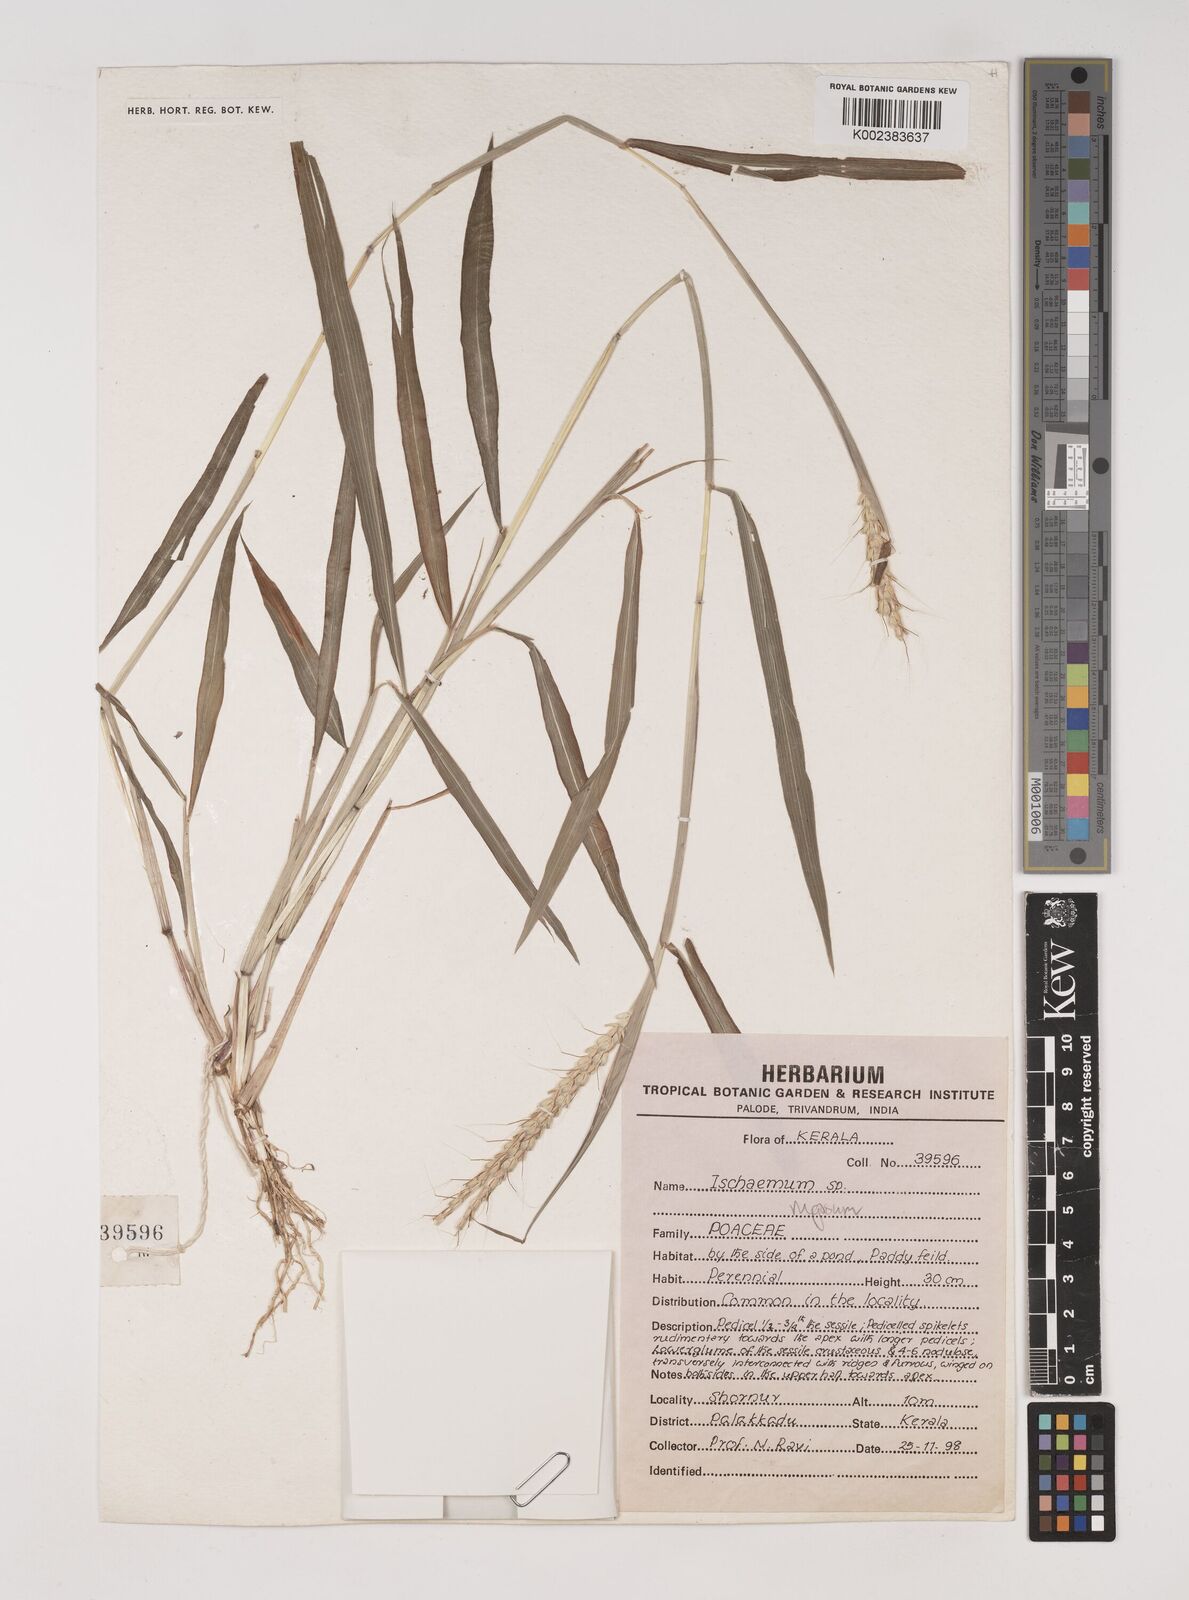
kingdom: Plantae
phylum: Tracheophyta
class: Liliopsida
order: Poales
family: Poaceae
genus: Ischaemum
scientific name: Ischaemum
